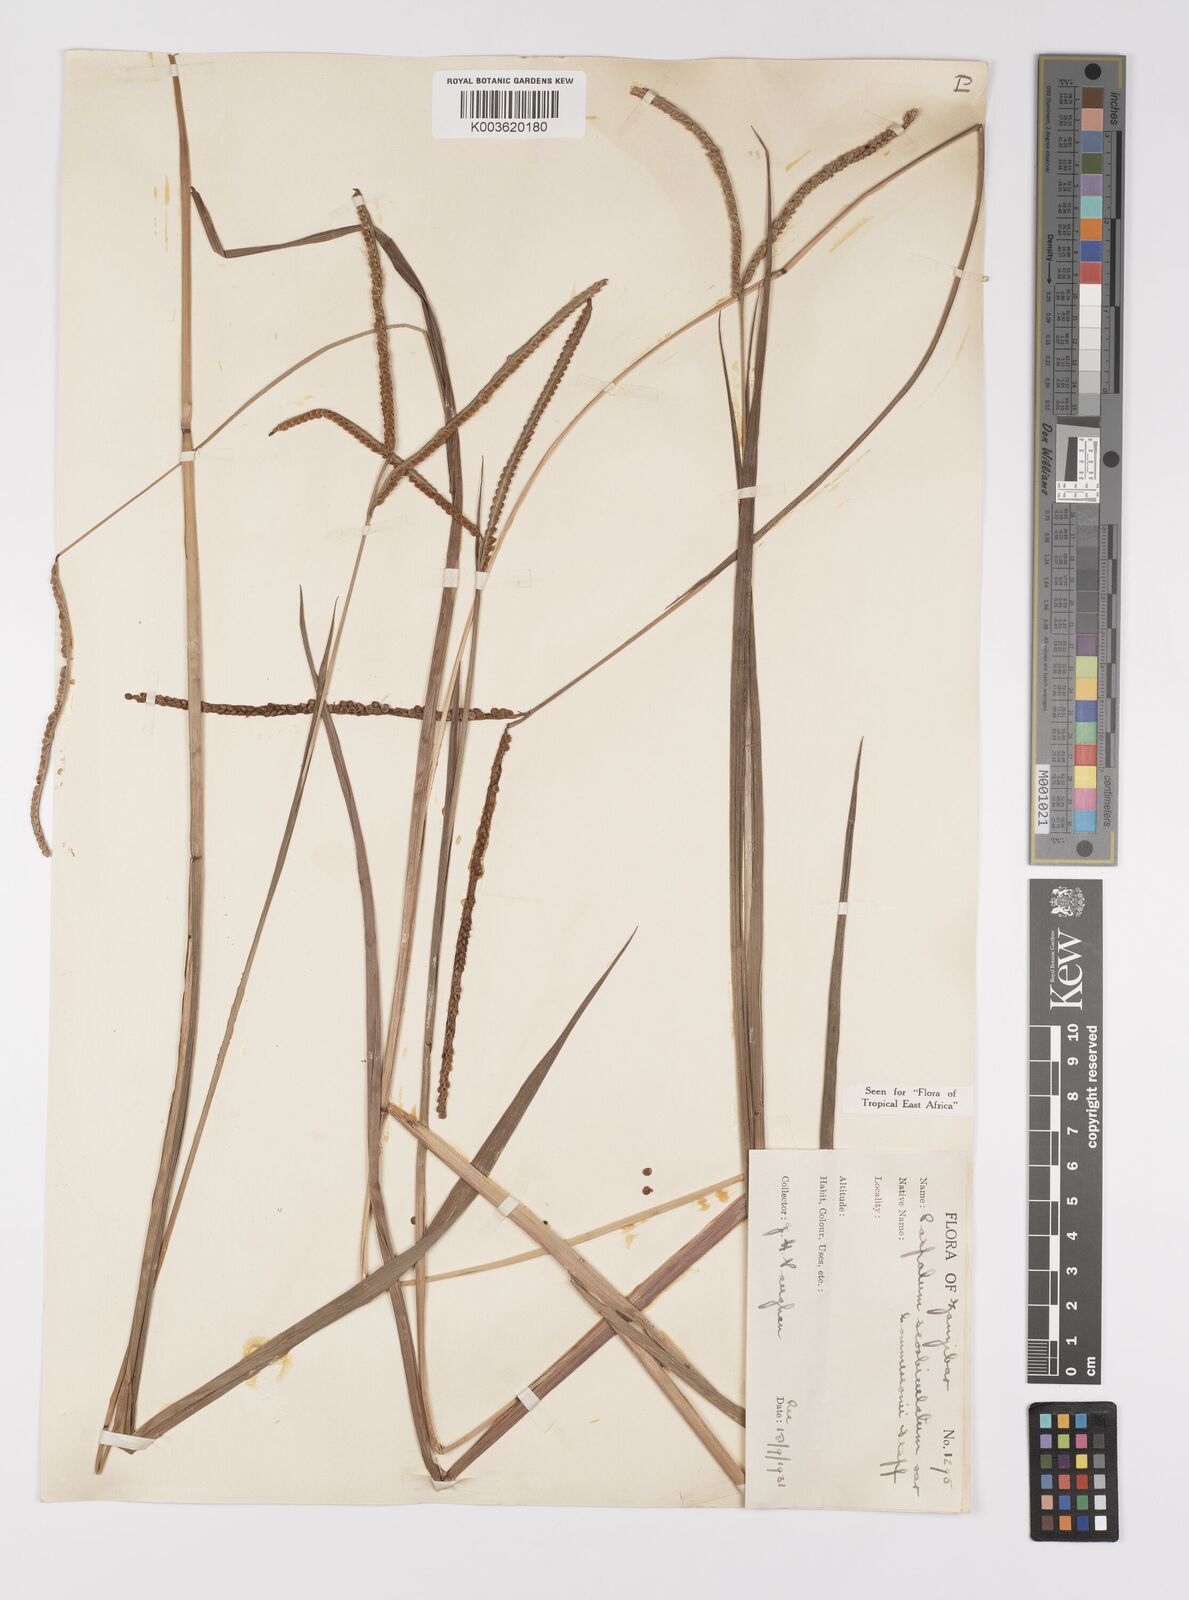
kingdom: Plantae
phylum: Tracheophyta
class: Liliopsida
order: Poales
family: Poaceae
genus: Paspalum
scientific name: Paspalum scrobiculatum
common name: Kodo millet
